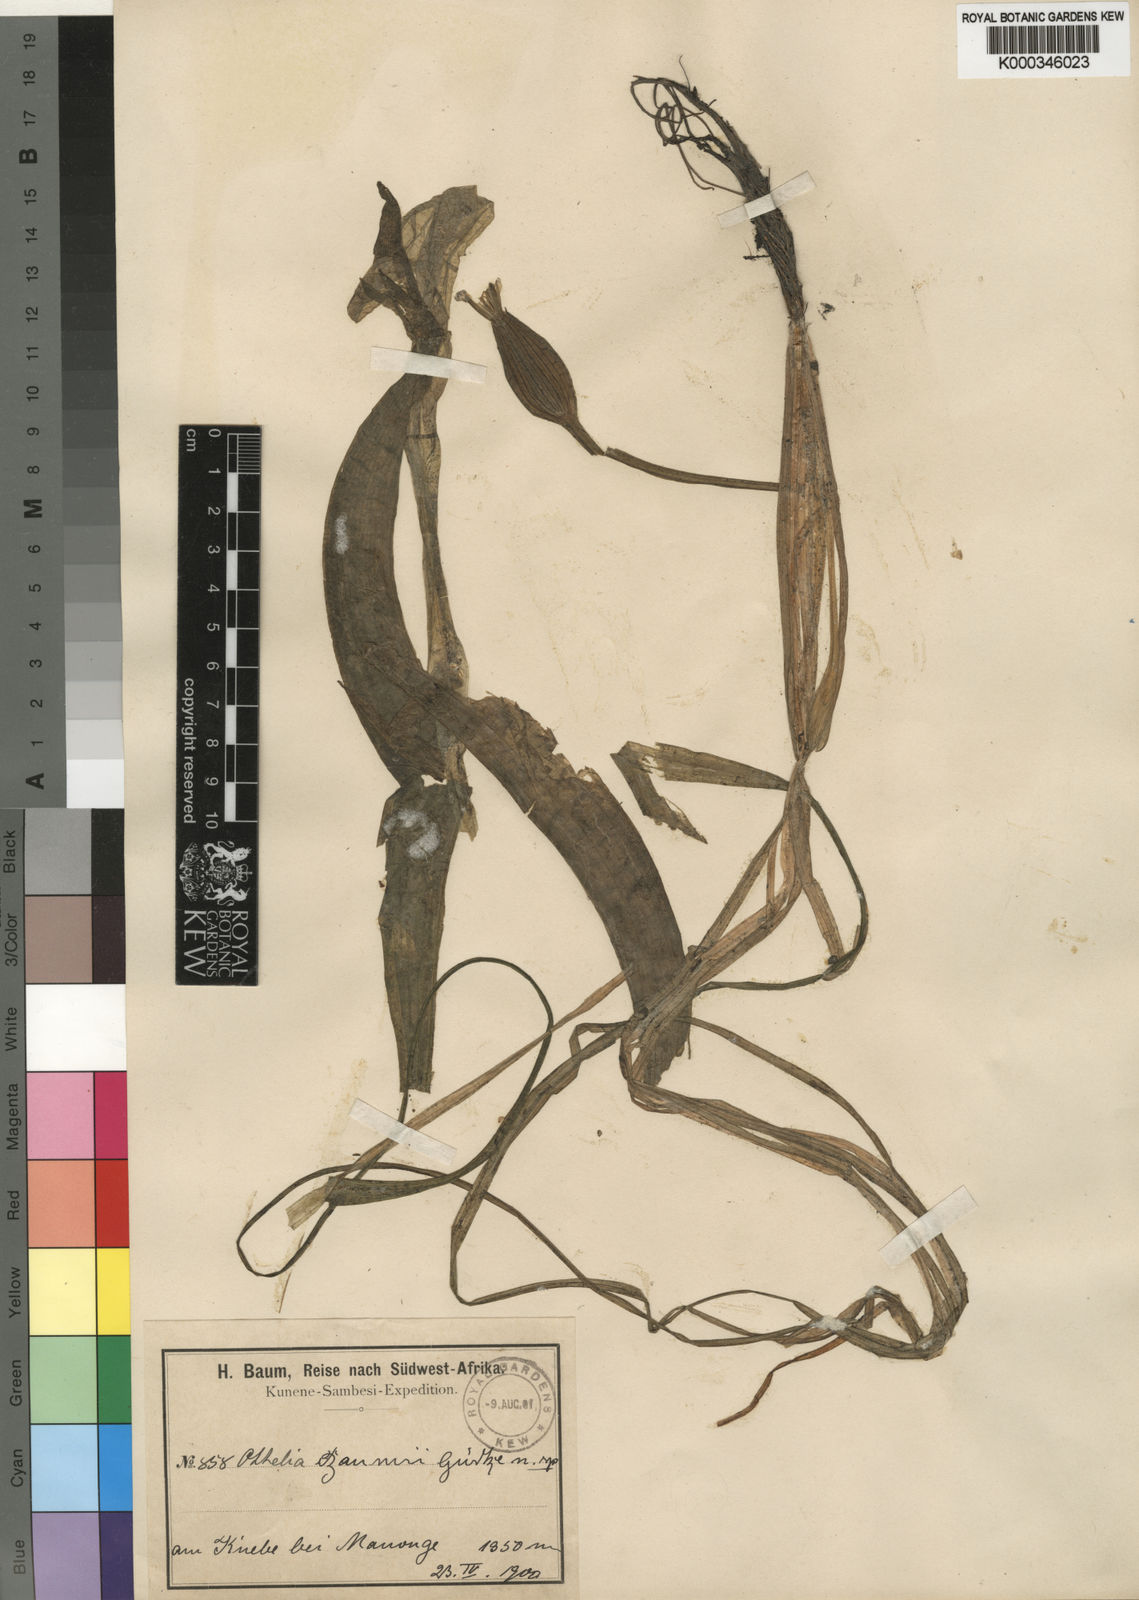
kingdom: Plantae
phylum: Tracheophyta
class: Liliopsida
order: Alismatales
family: Hydrocharitaceae
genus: Ottelia
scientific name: Ottelia ulvifolia
